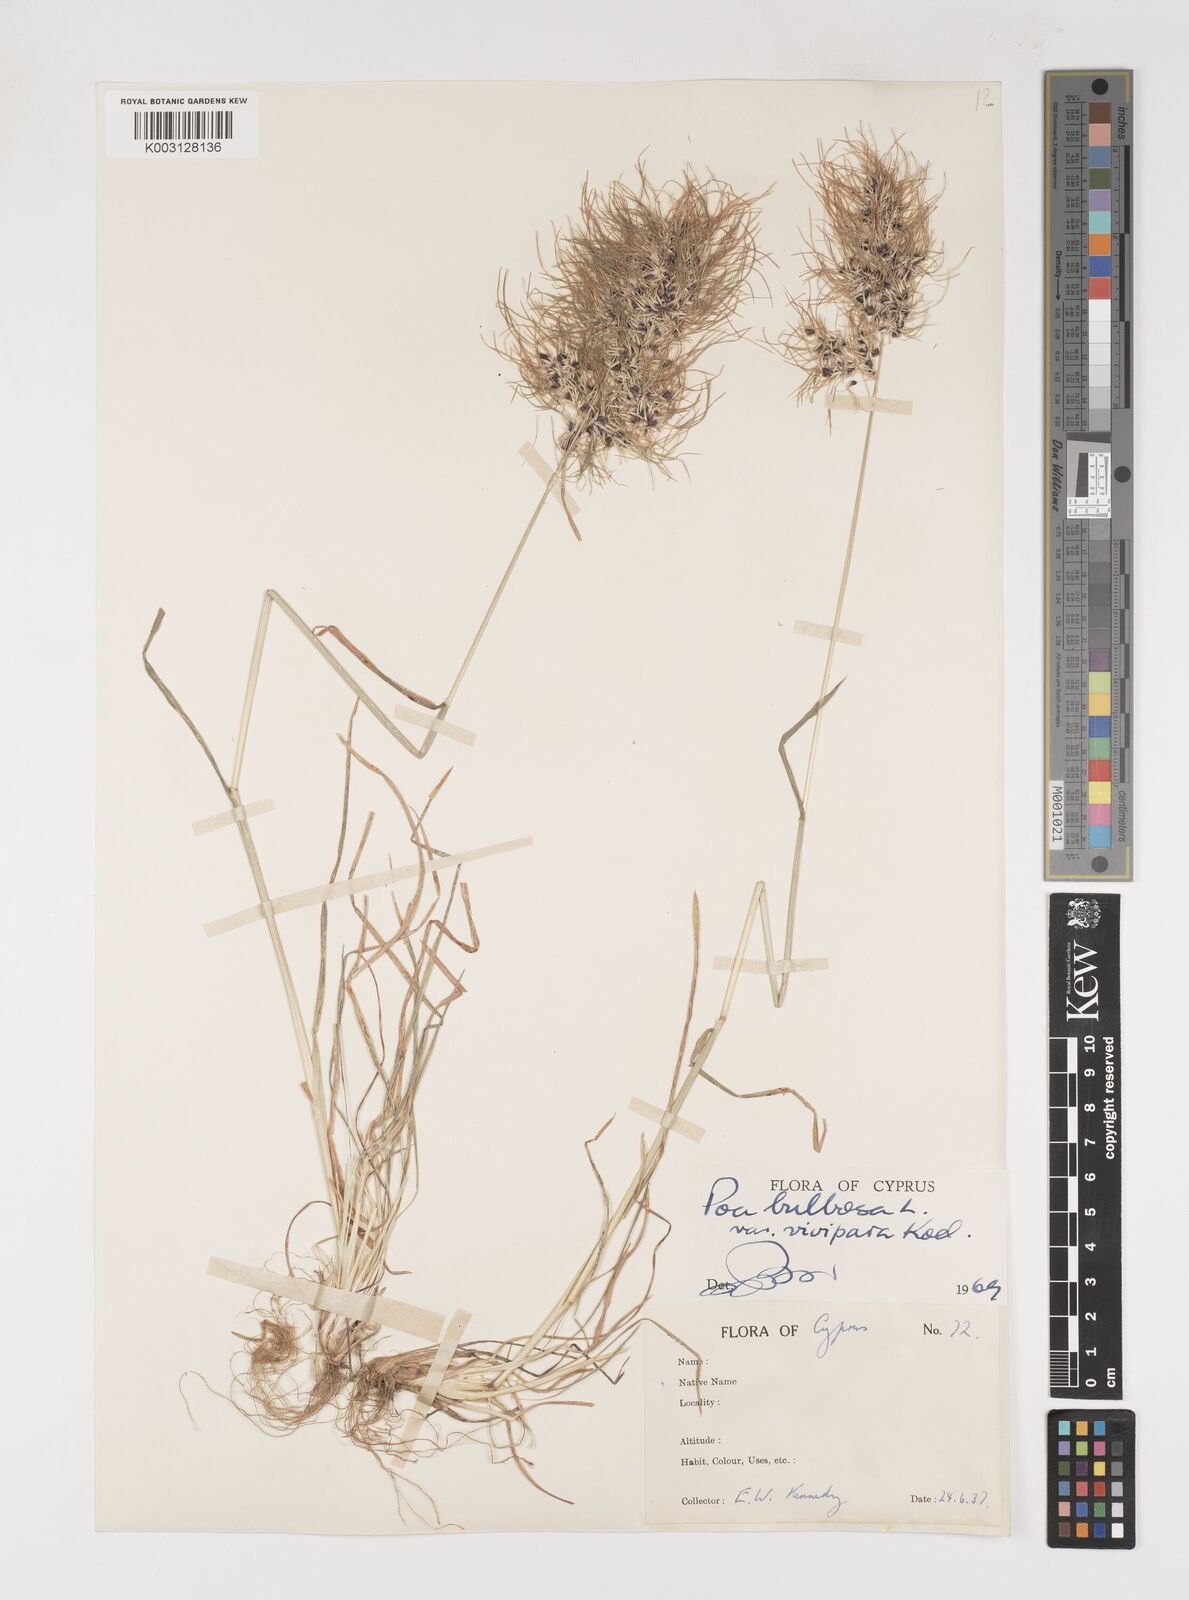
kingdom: Plantae
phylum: Tracheophyta
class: Liliopsida
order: Poales
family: Poaceae
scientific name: Poaceae
